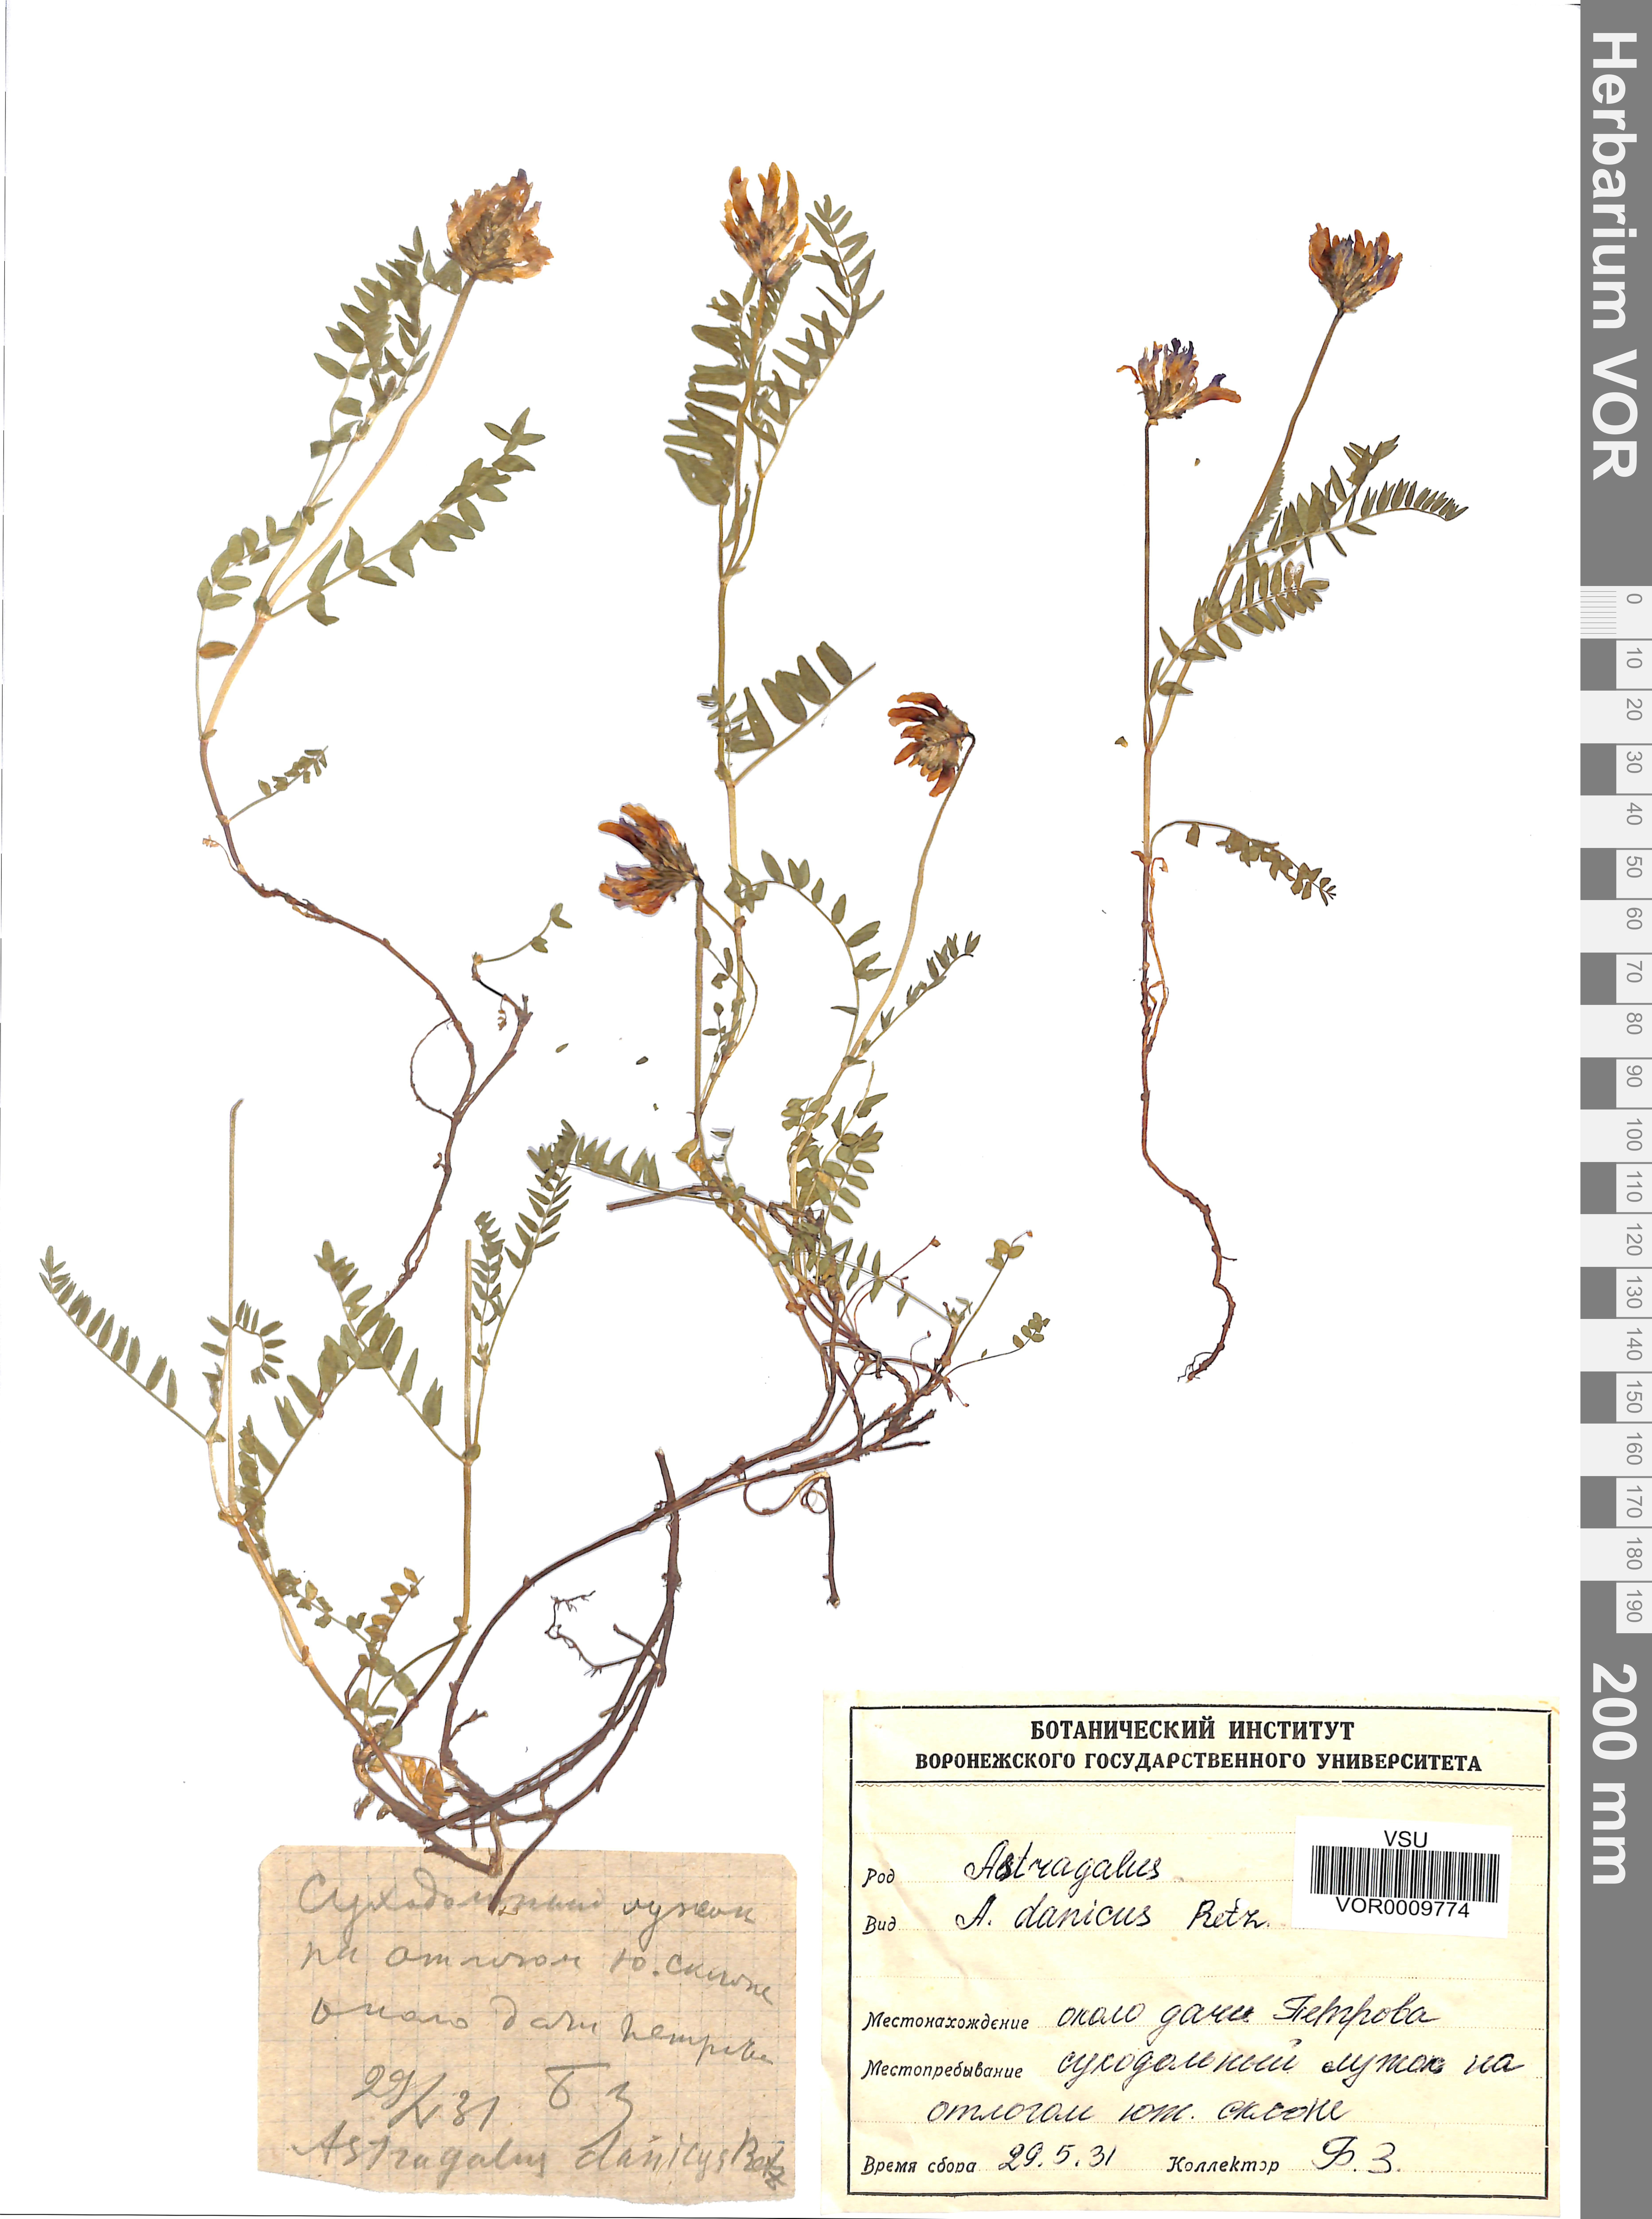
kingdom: Plantae
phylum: Tracheophyta
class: Magnoliopsida
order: Fabales
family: Fabaceae
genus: Astragalus
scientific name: Astragalus danicus
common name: Purple milk-vetch
